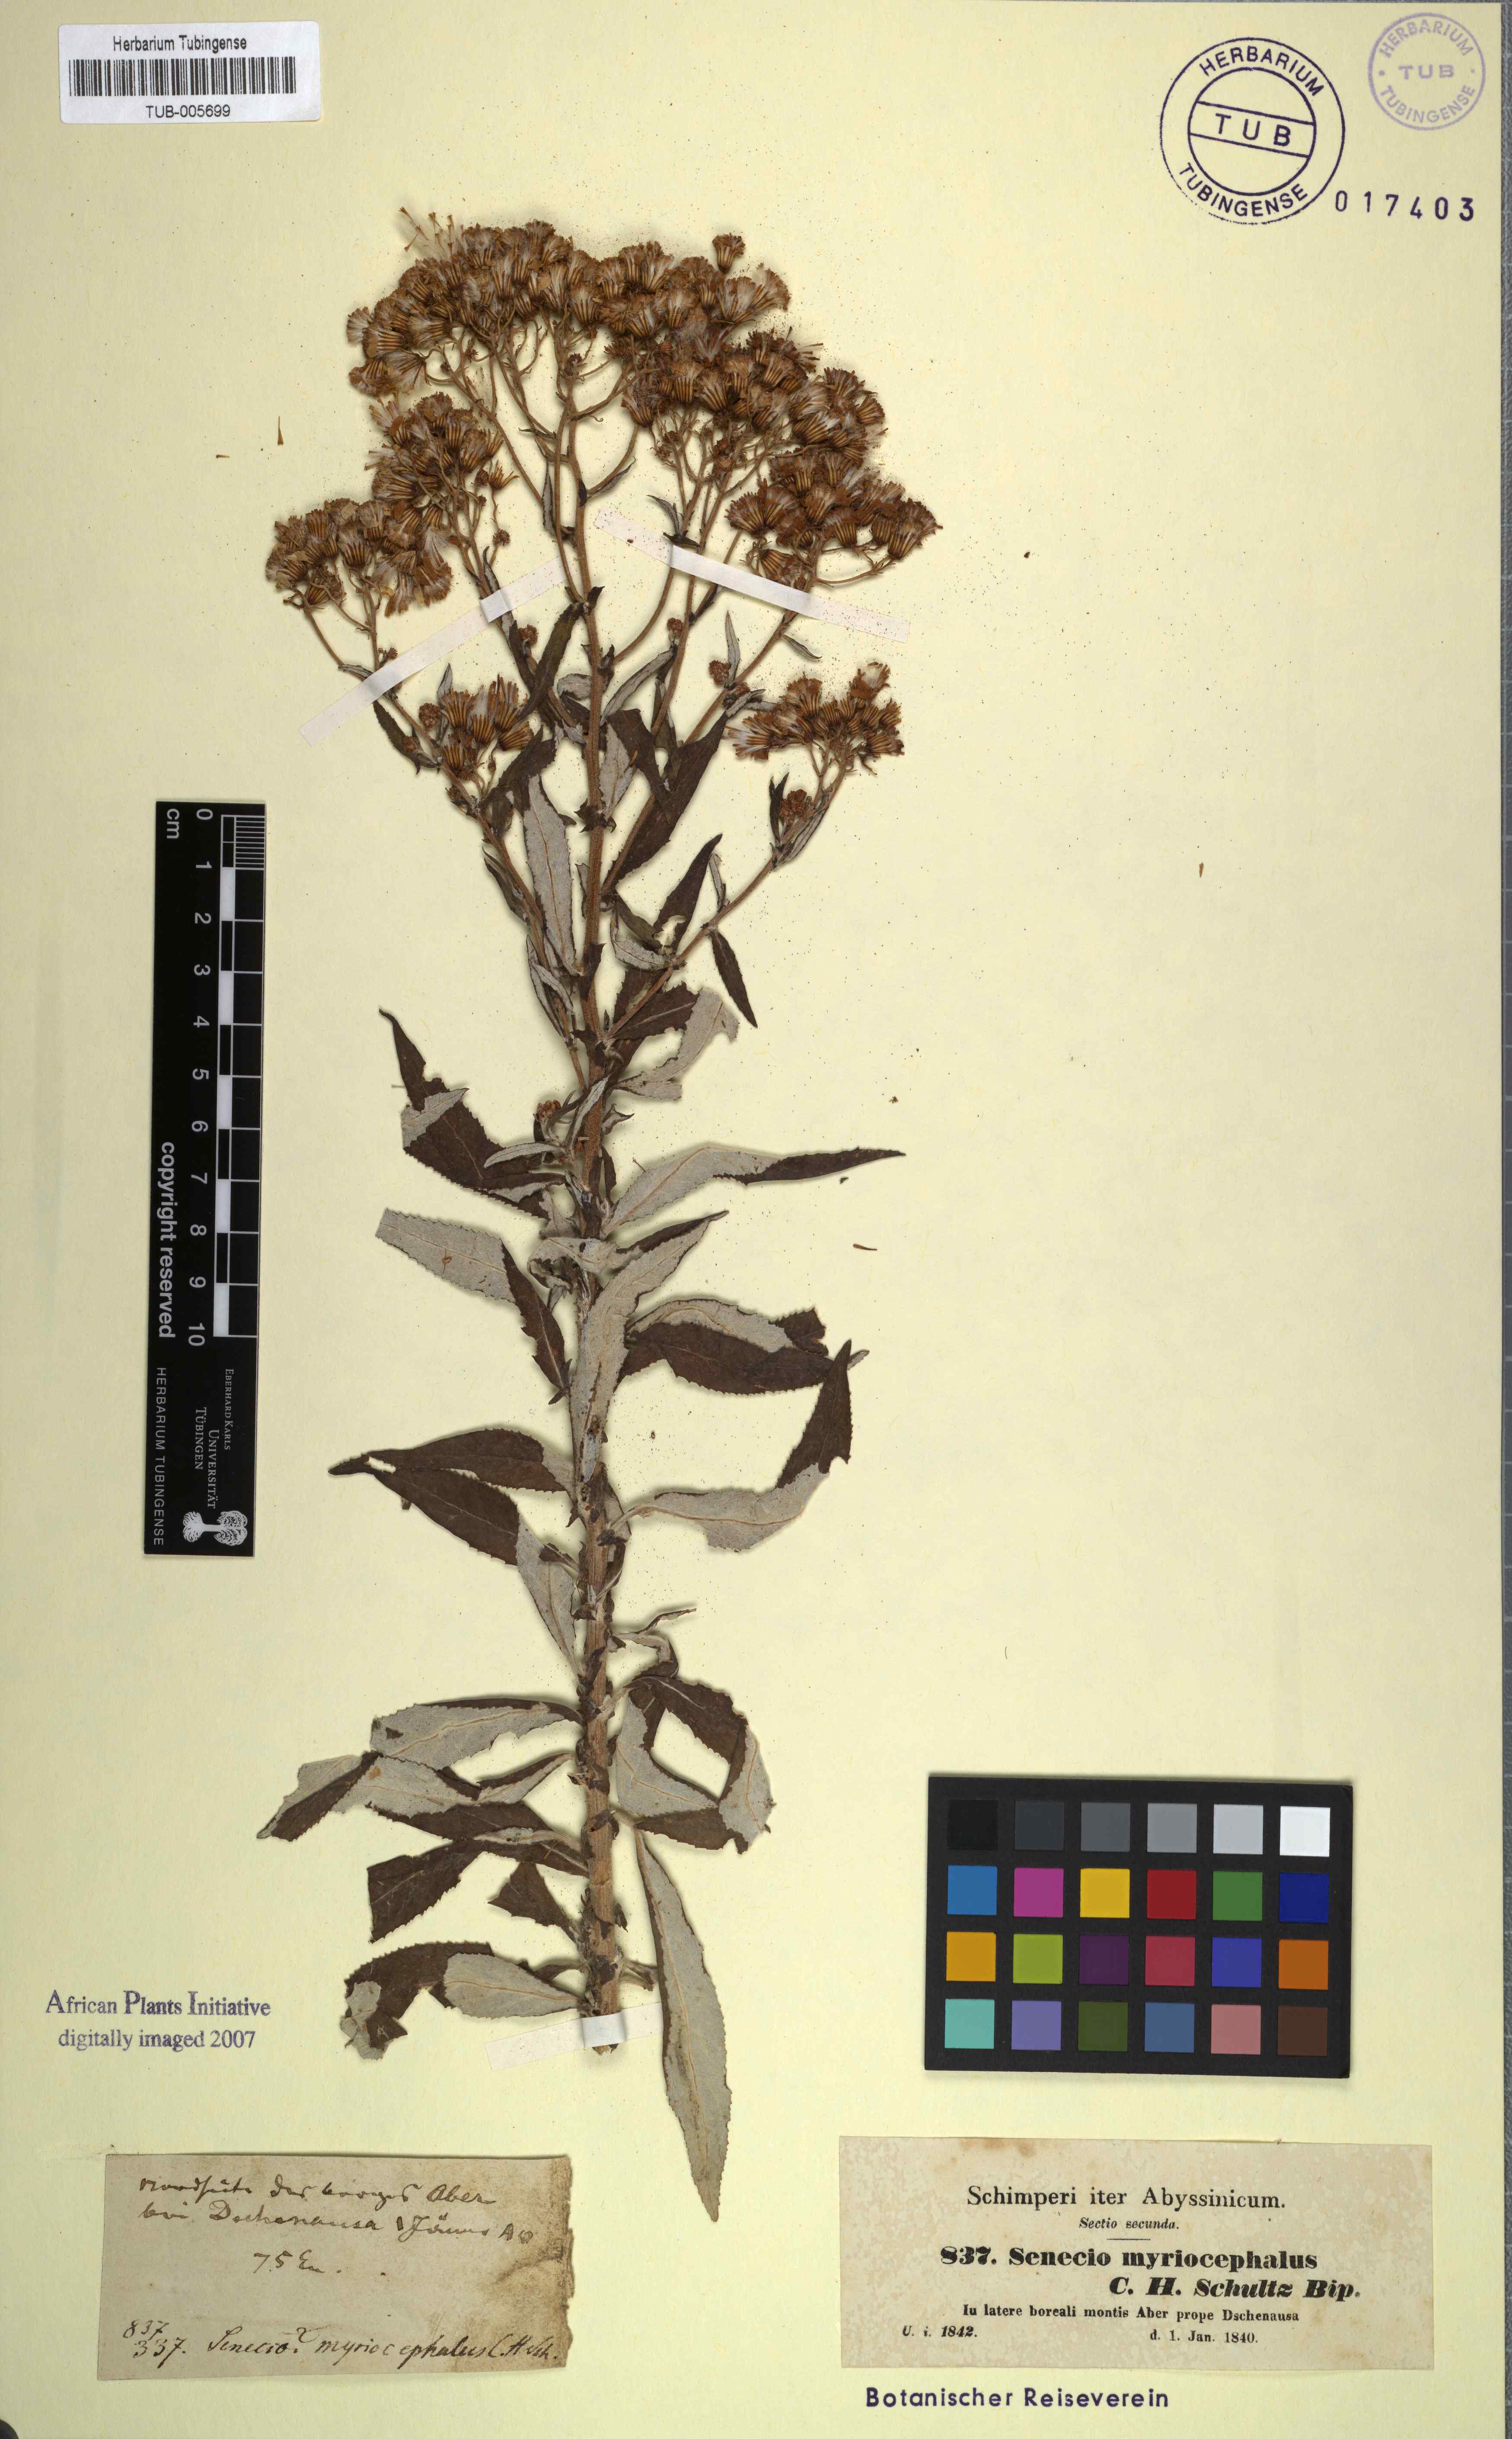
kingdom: Plantae
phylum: Tracheophyta
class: Magnoliopsida
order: Asterales
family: Asteraceae
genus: Senecio
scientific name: Senecio myriocephalus
